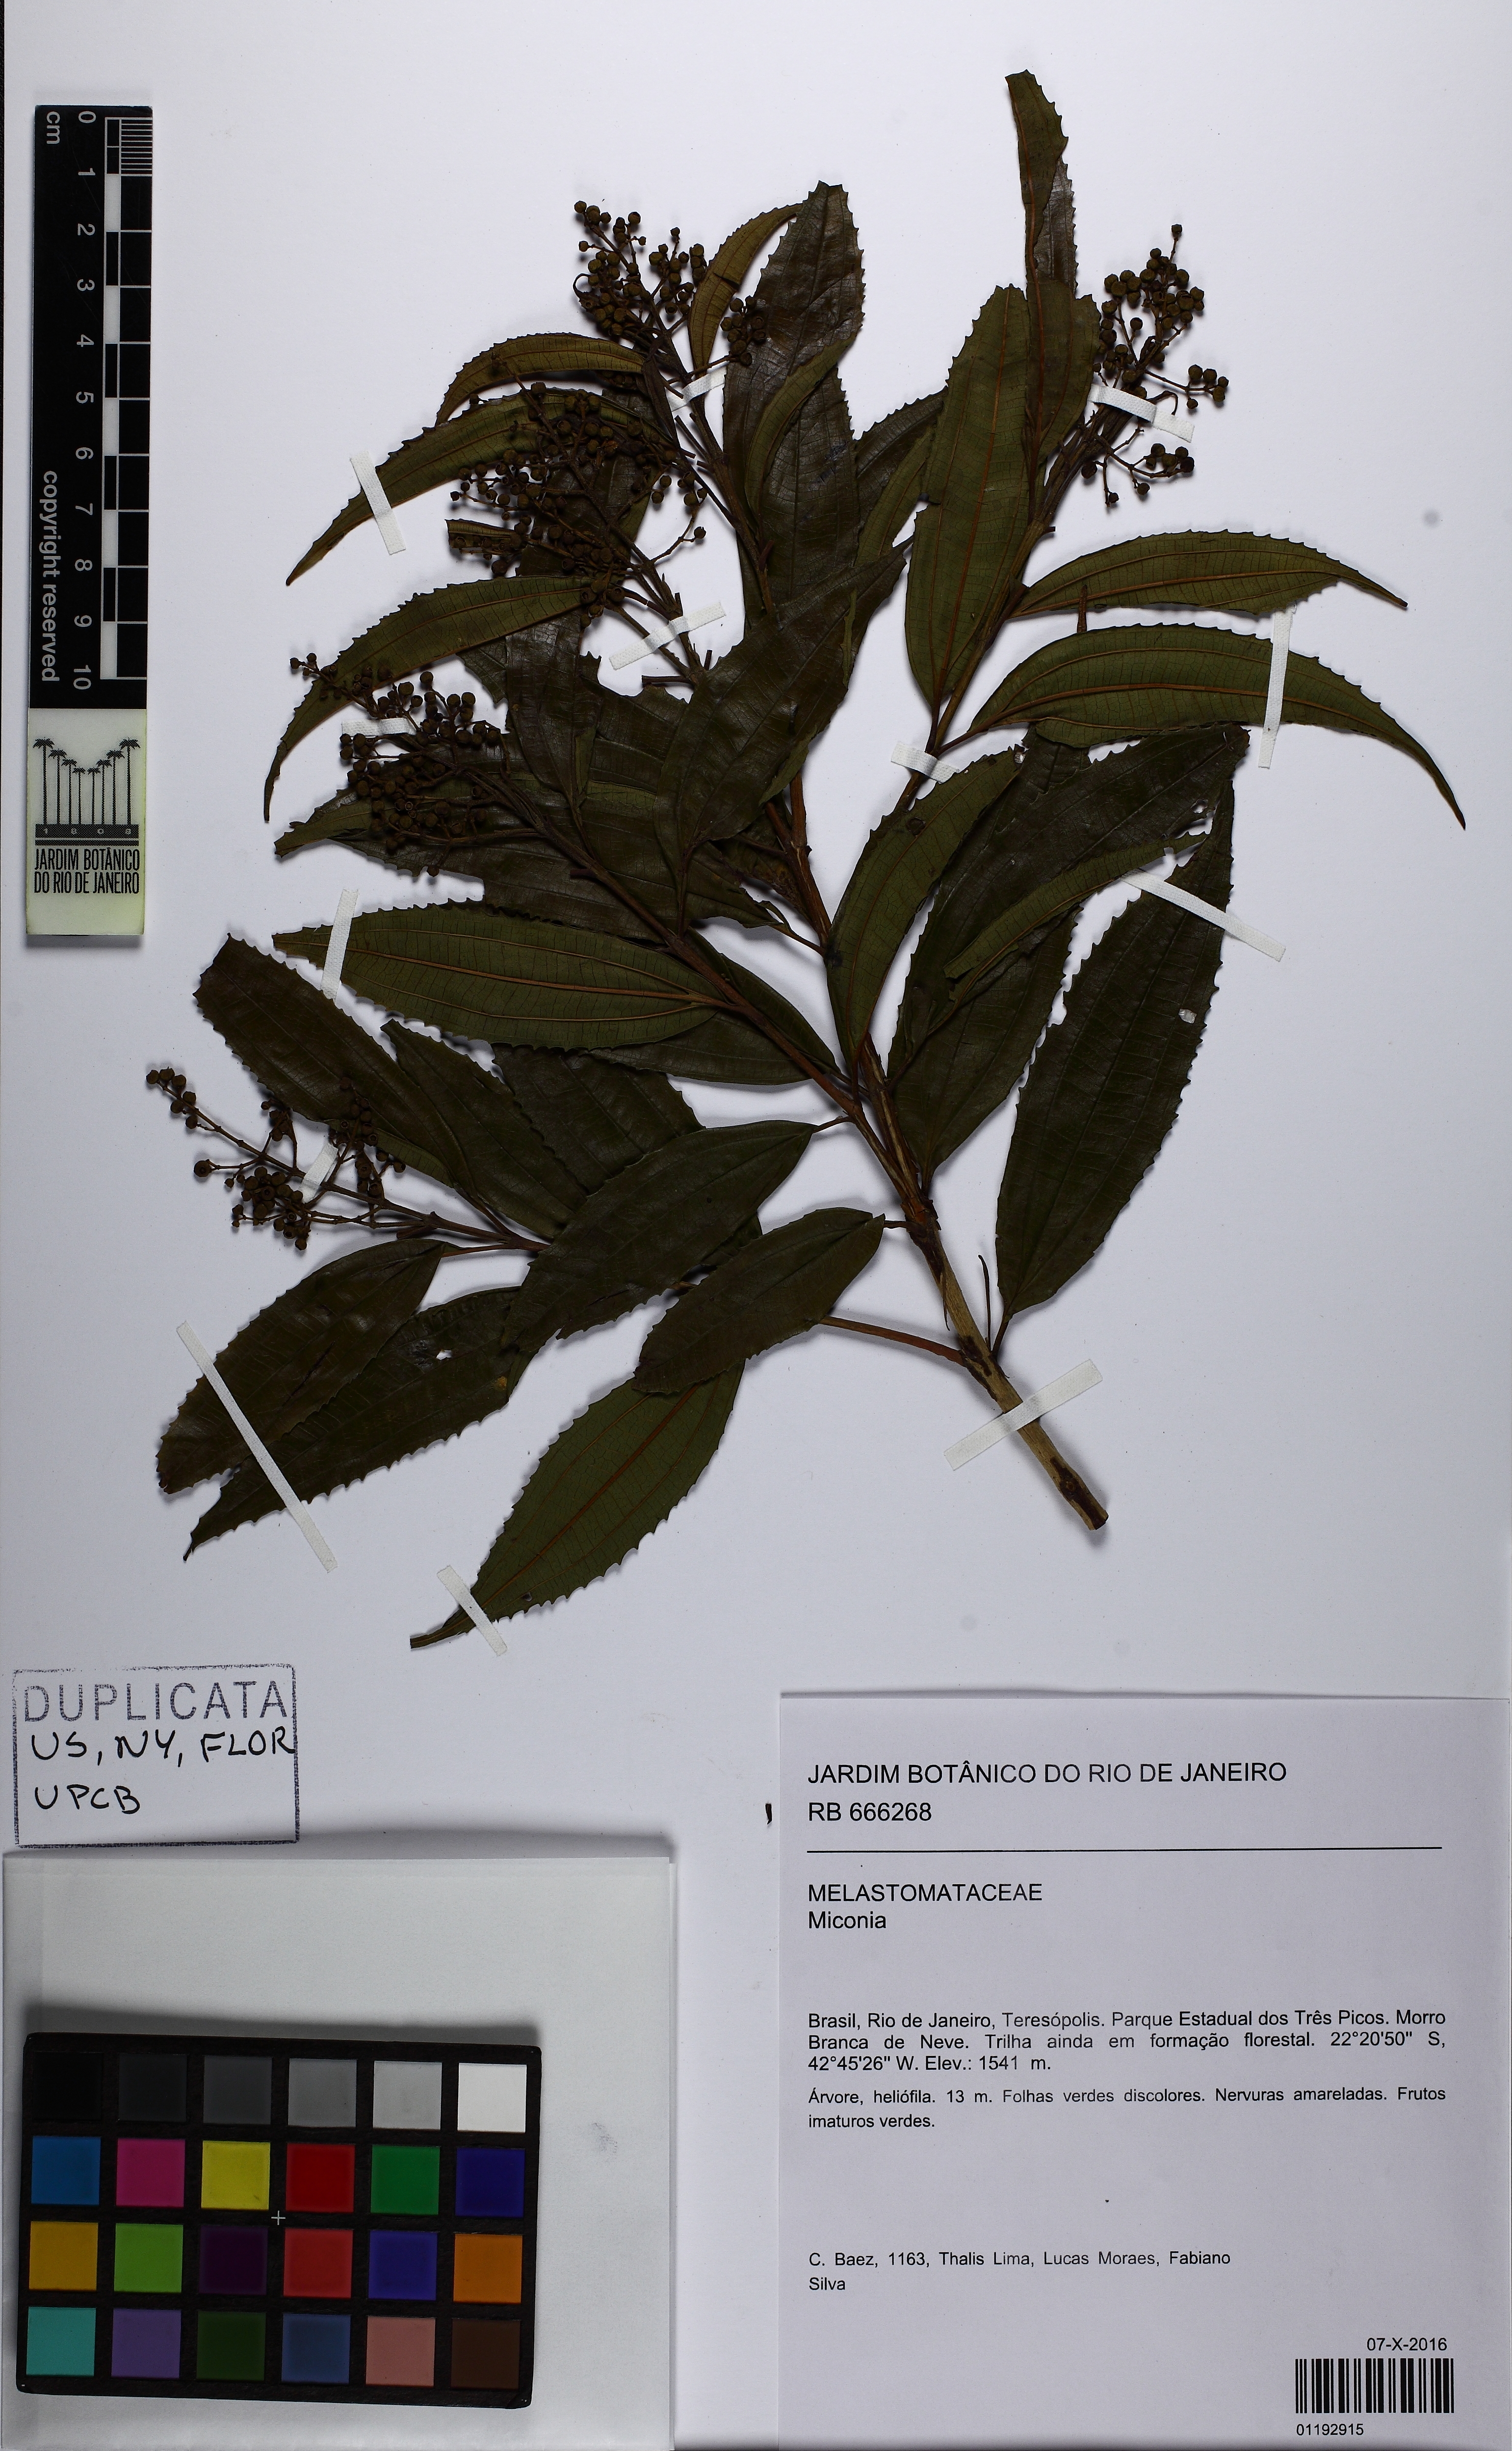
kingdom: Plantae
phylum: Tracheophyta
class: Magnoliopsida
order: Myrtales
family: Melastomataceae
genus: Miconia
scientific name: Miconia
